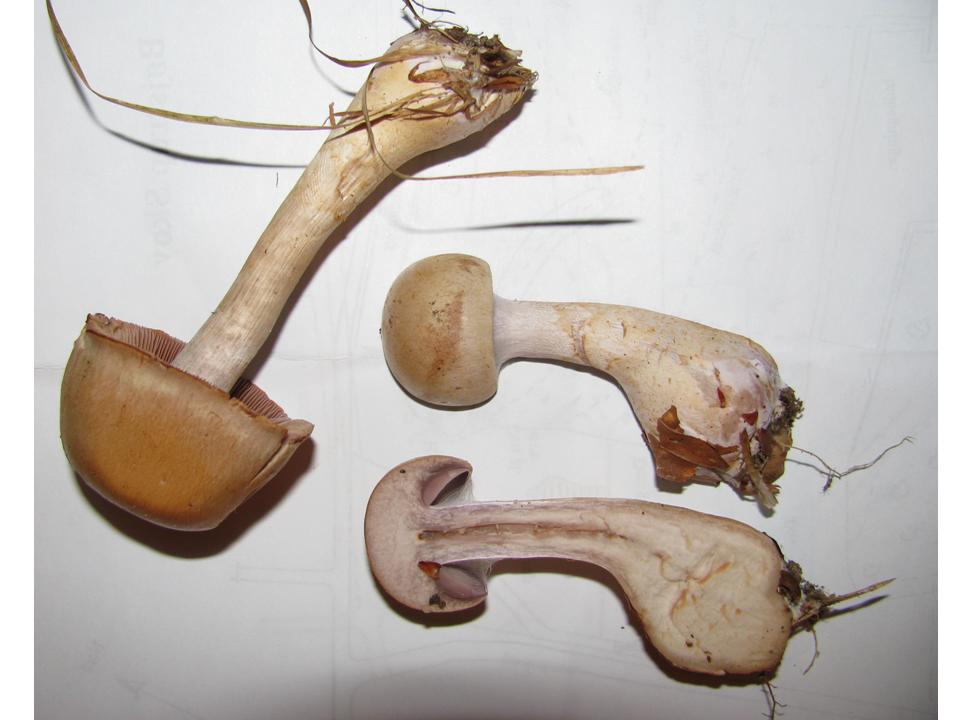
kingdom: Fungi
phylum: Basidiomycota
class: Agaricomycetes
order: Agaricales
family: Cortinariaceae
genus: Cortinarius
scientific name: Cortinarius anomalus
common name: Variable webcap
